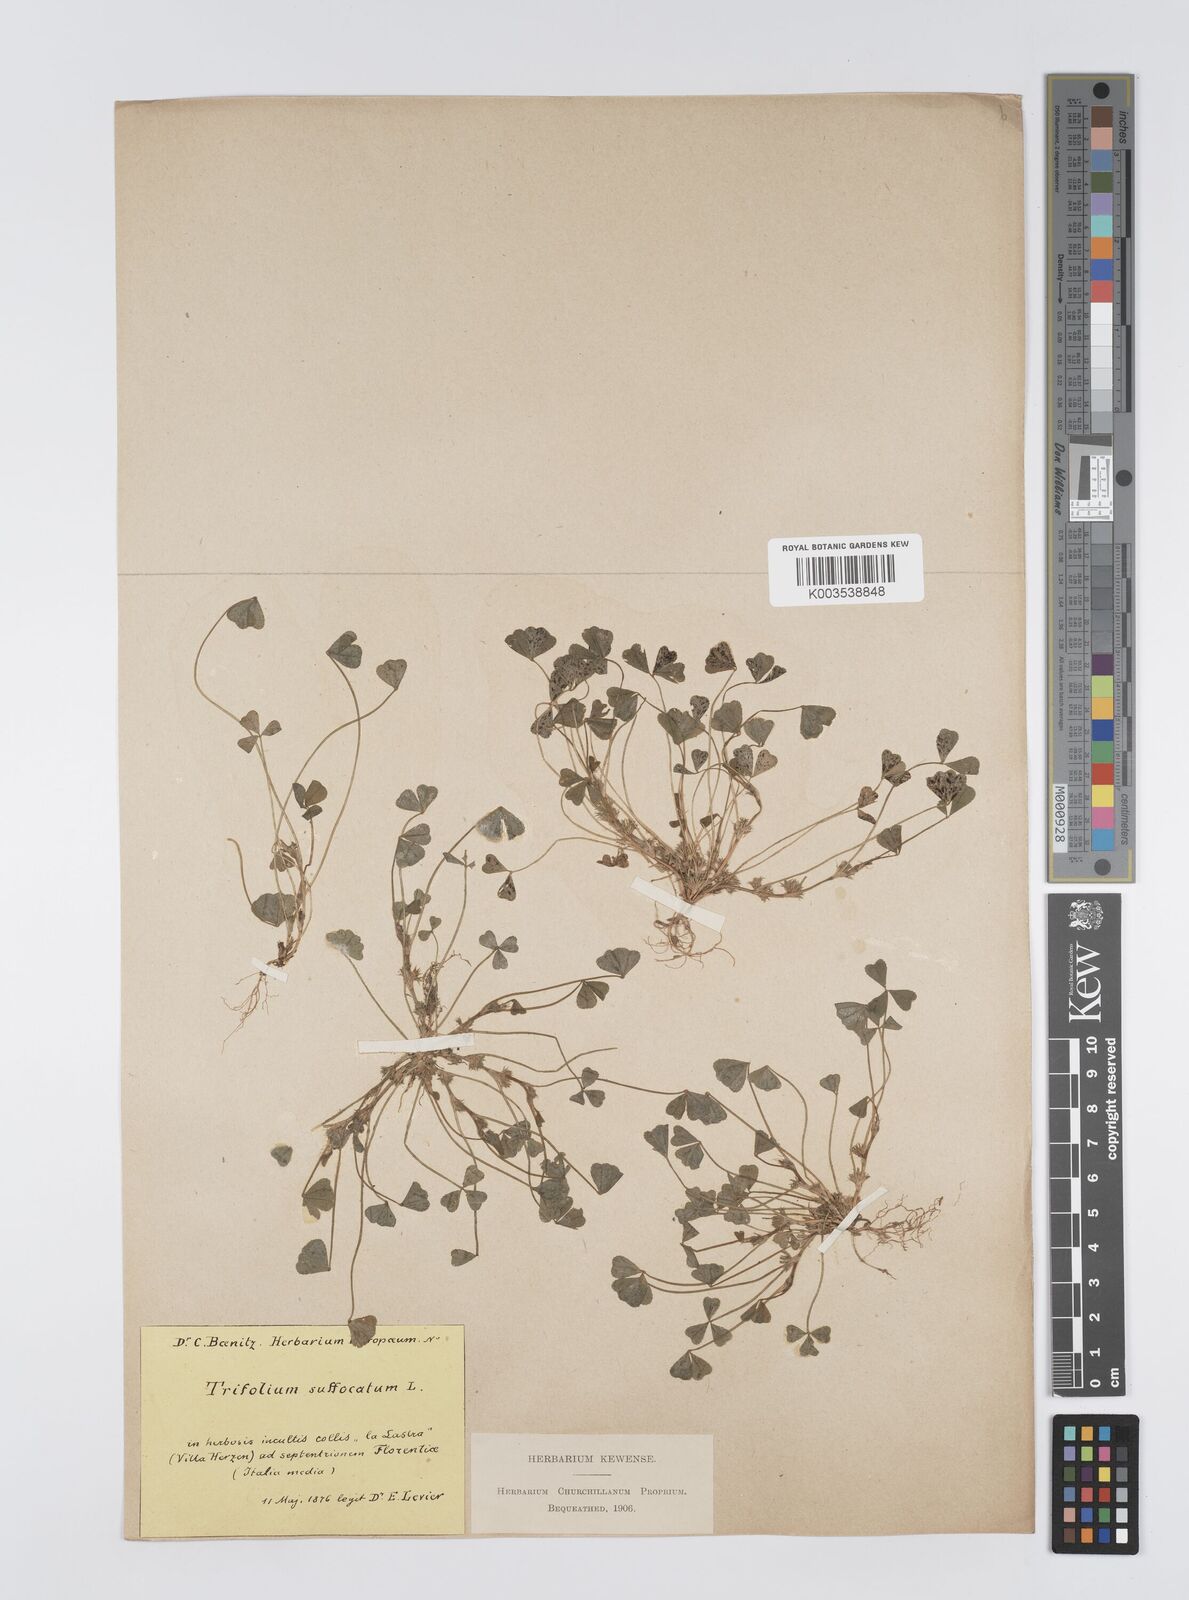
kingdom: Plantae
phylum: Tracheophyta
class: Magnoliopsida
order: Fabales
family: Fabaceae
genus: Trifolium
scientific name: Trifolium suffocatum
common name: Suffocated clover
